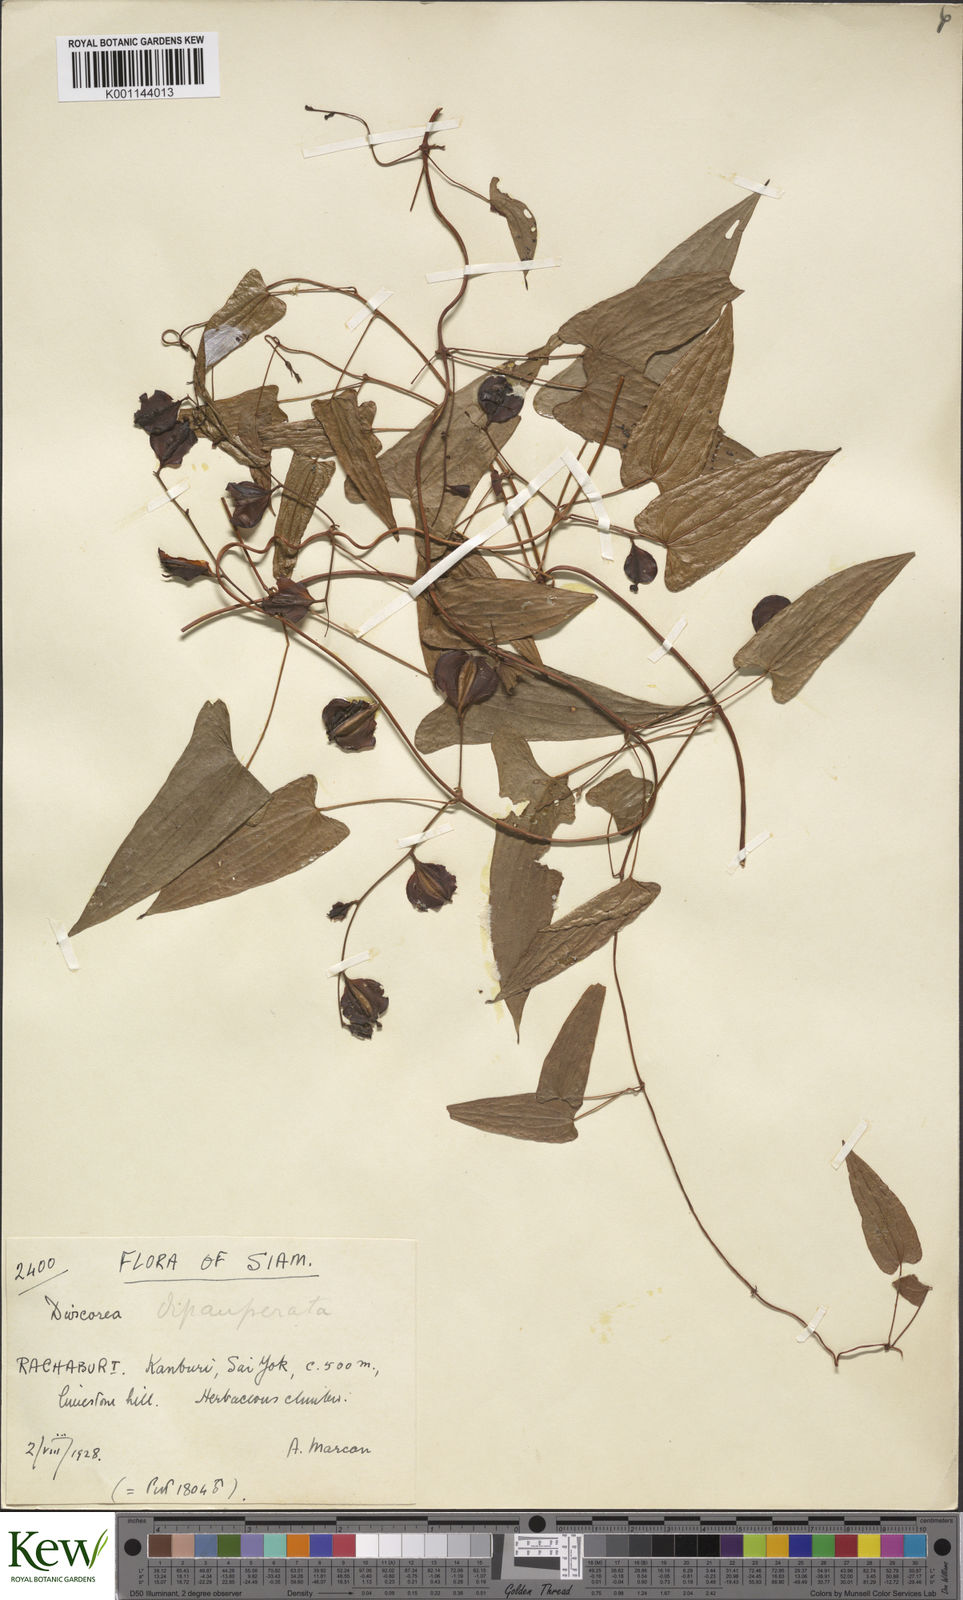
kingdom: Plantae
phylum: Tracheophyta
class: Liliopsida
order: Dioscoreales
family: Dioscoreaceae
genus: Dioscorea
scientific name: Dioscorea depauperata
